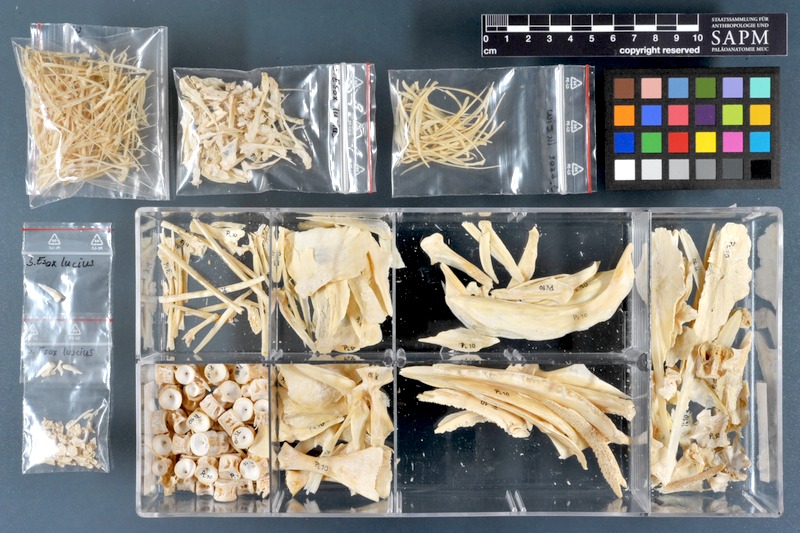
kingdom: Animalia
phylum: Chordata
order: Esociformes
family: Esocidae
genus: Esox
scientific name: Esox lucius
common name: Northern pike
